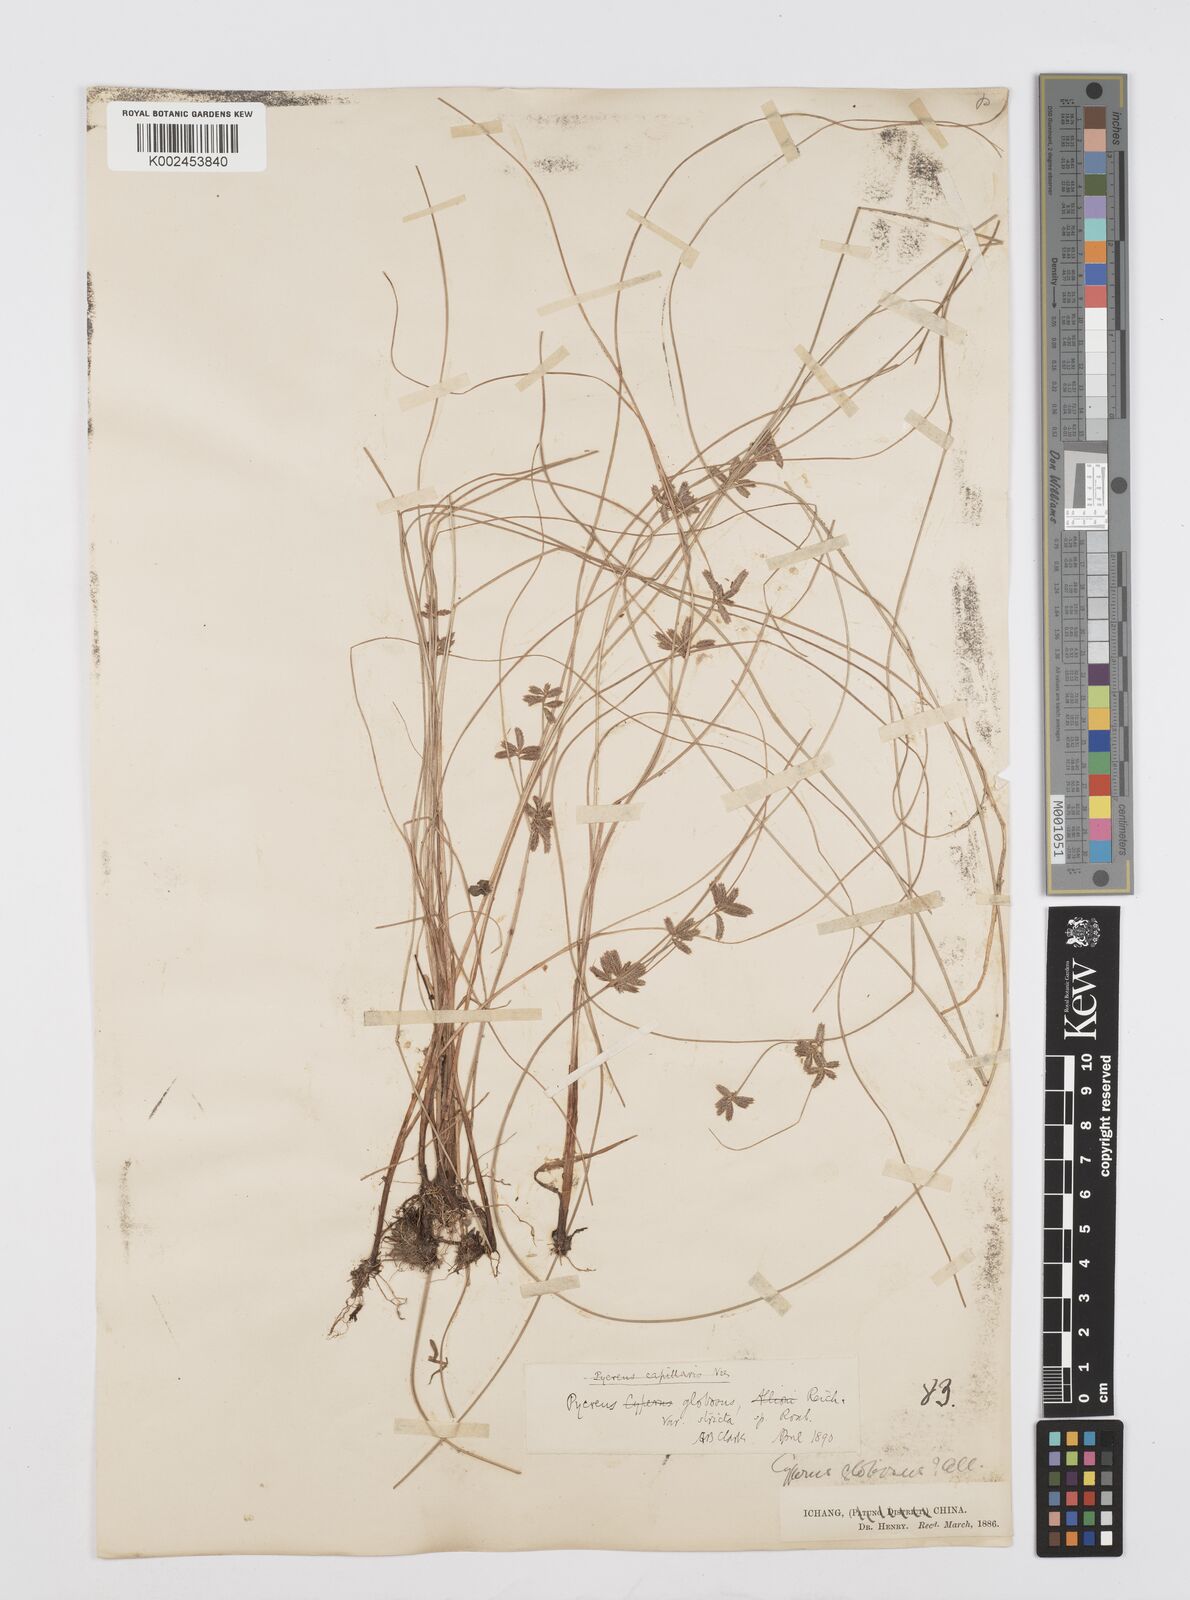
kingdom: Plantae
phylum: Tracheophyta
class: Liliopsida
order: Poales
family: Cyperaceae
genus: Cyperus
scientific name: Cyperus flavidus
